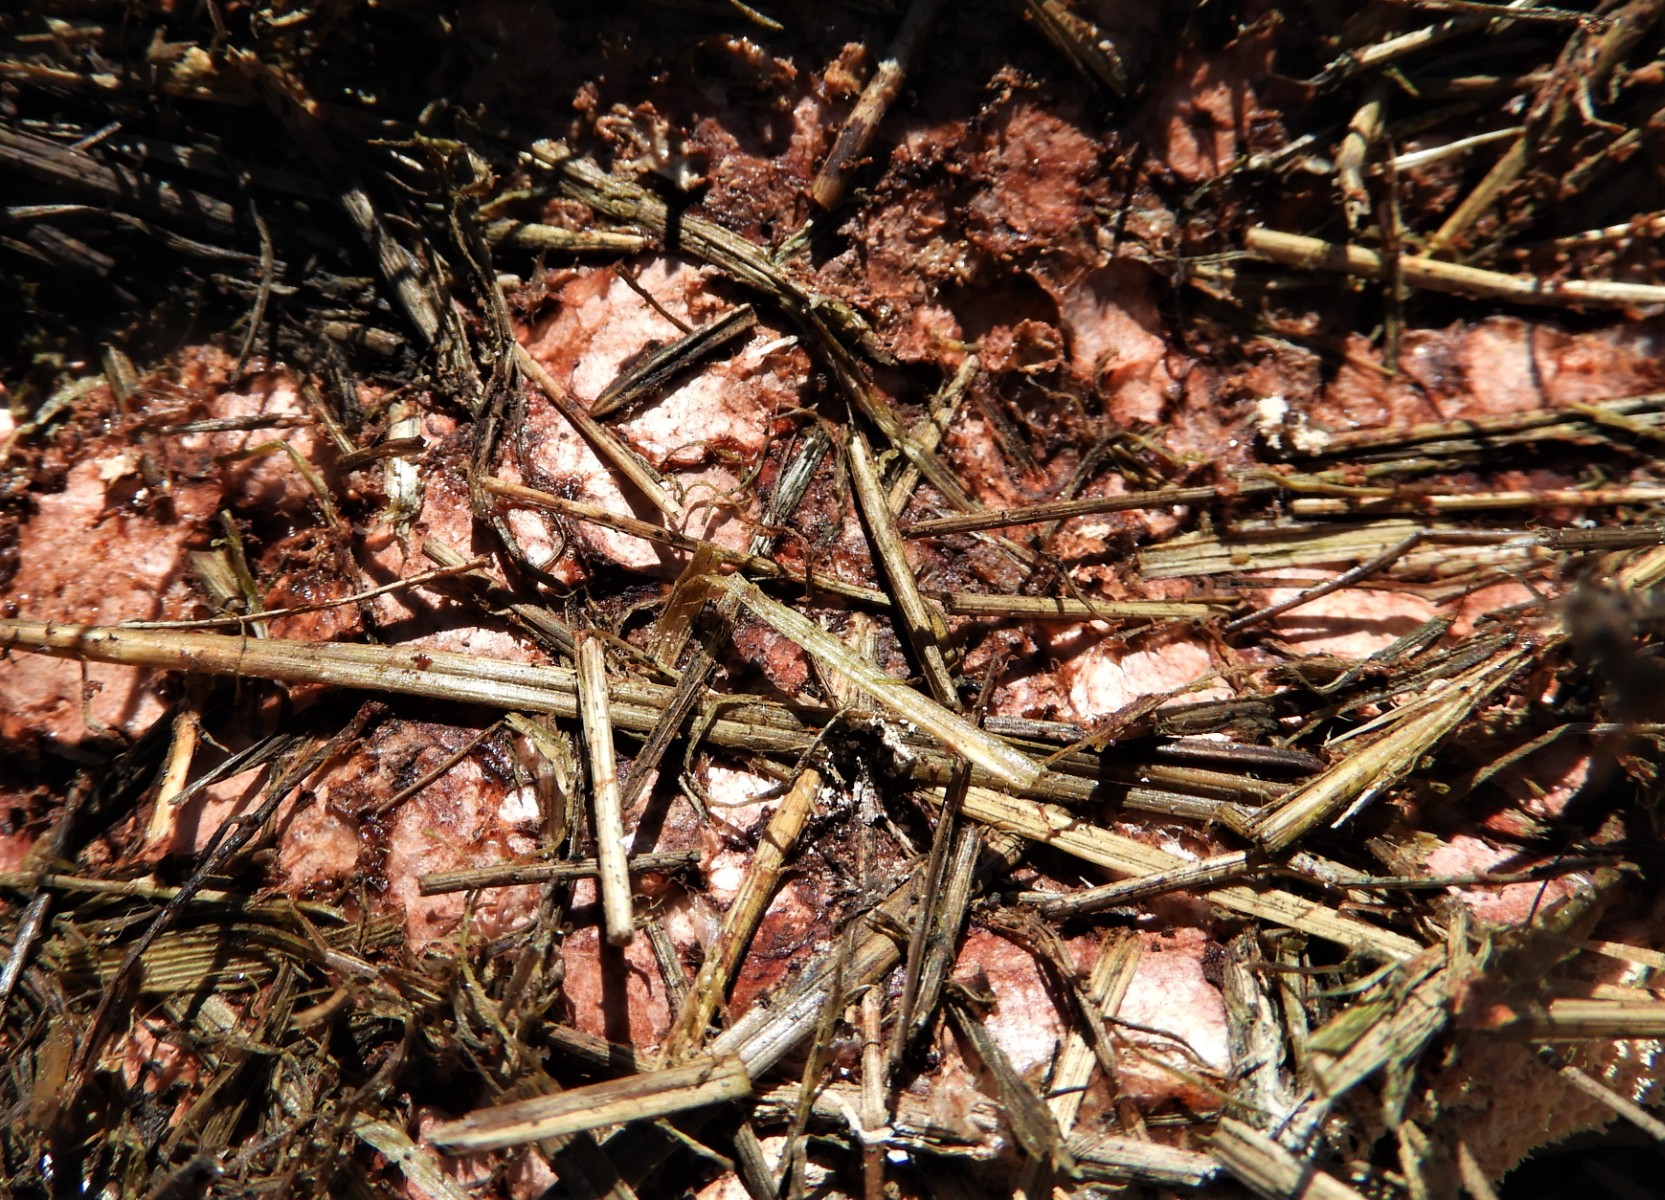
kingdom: Protozoa
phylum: Mycetozoa
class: Myxomycetes
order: Physarales
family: Physaraceae
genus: Fuligo
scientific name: Fuligo septica
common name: Dog vomit slime mold
